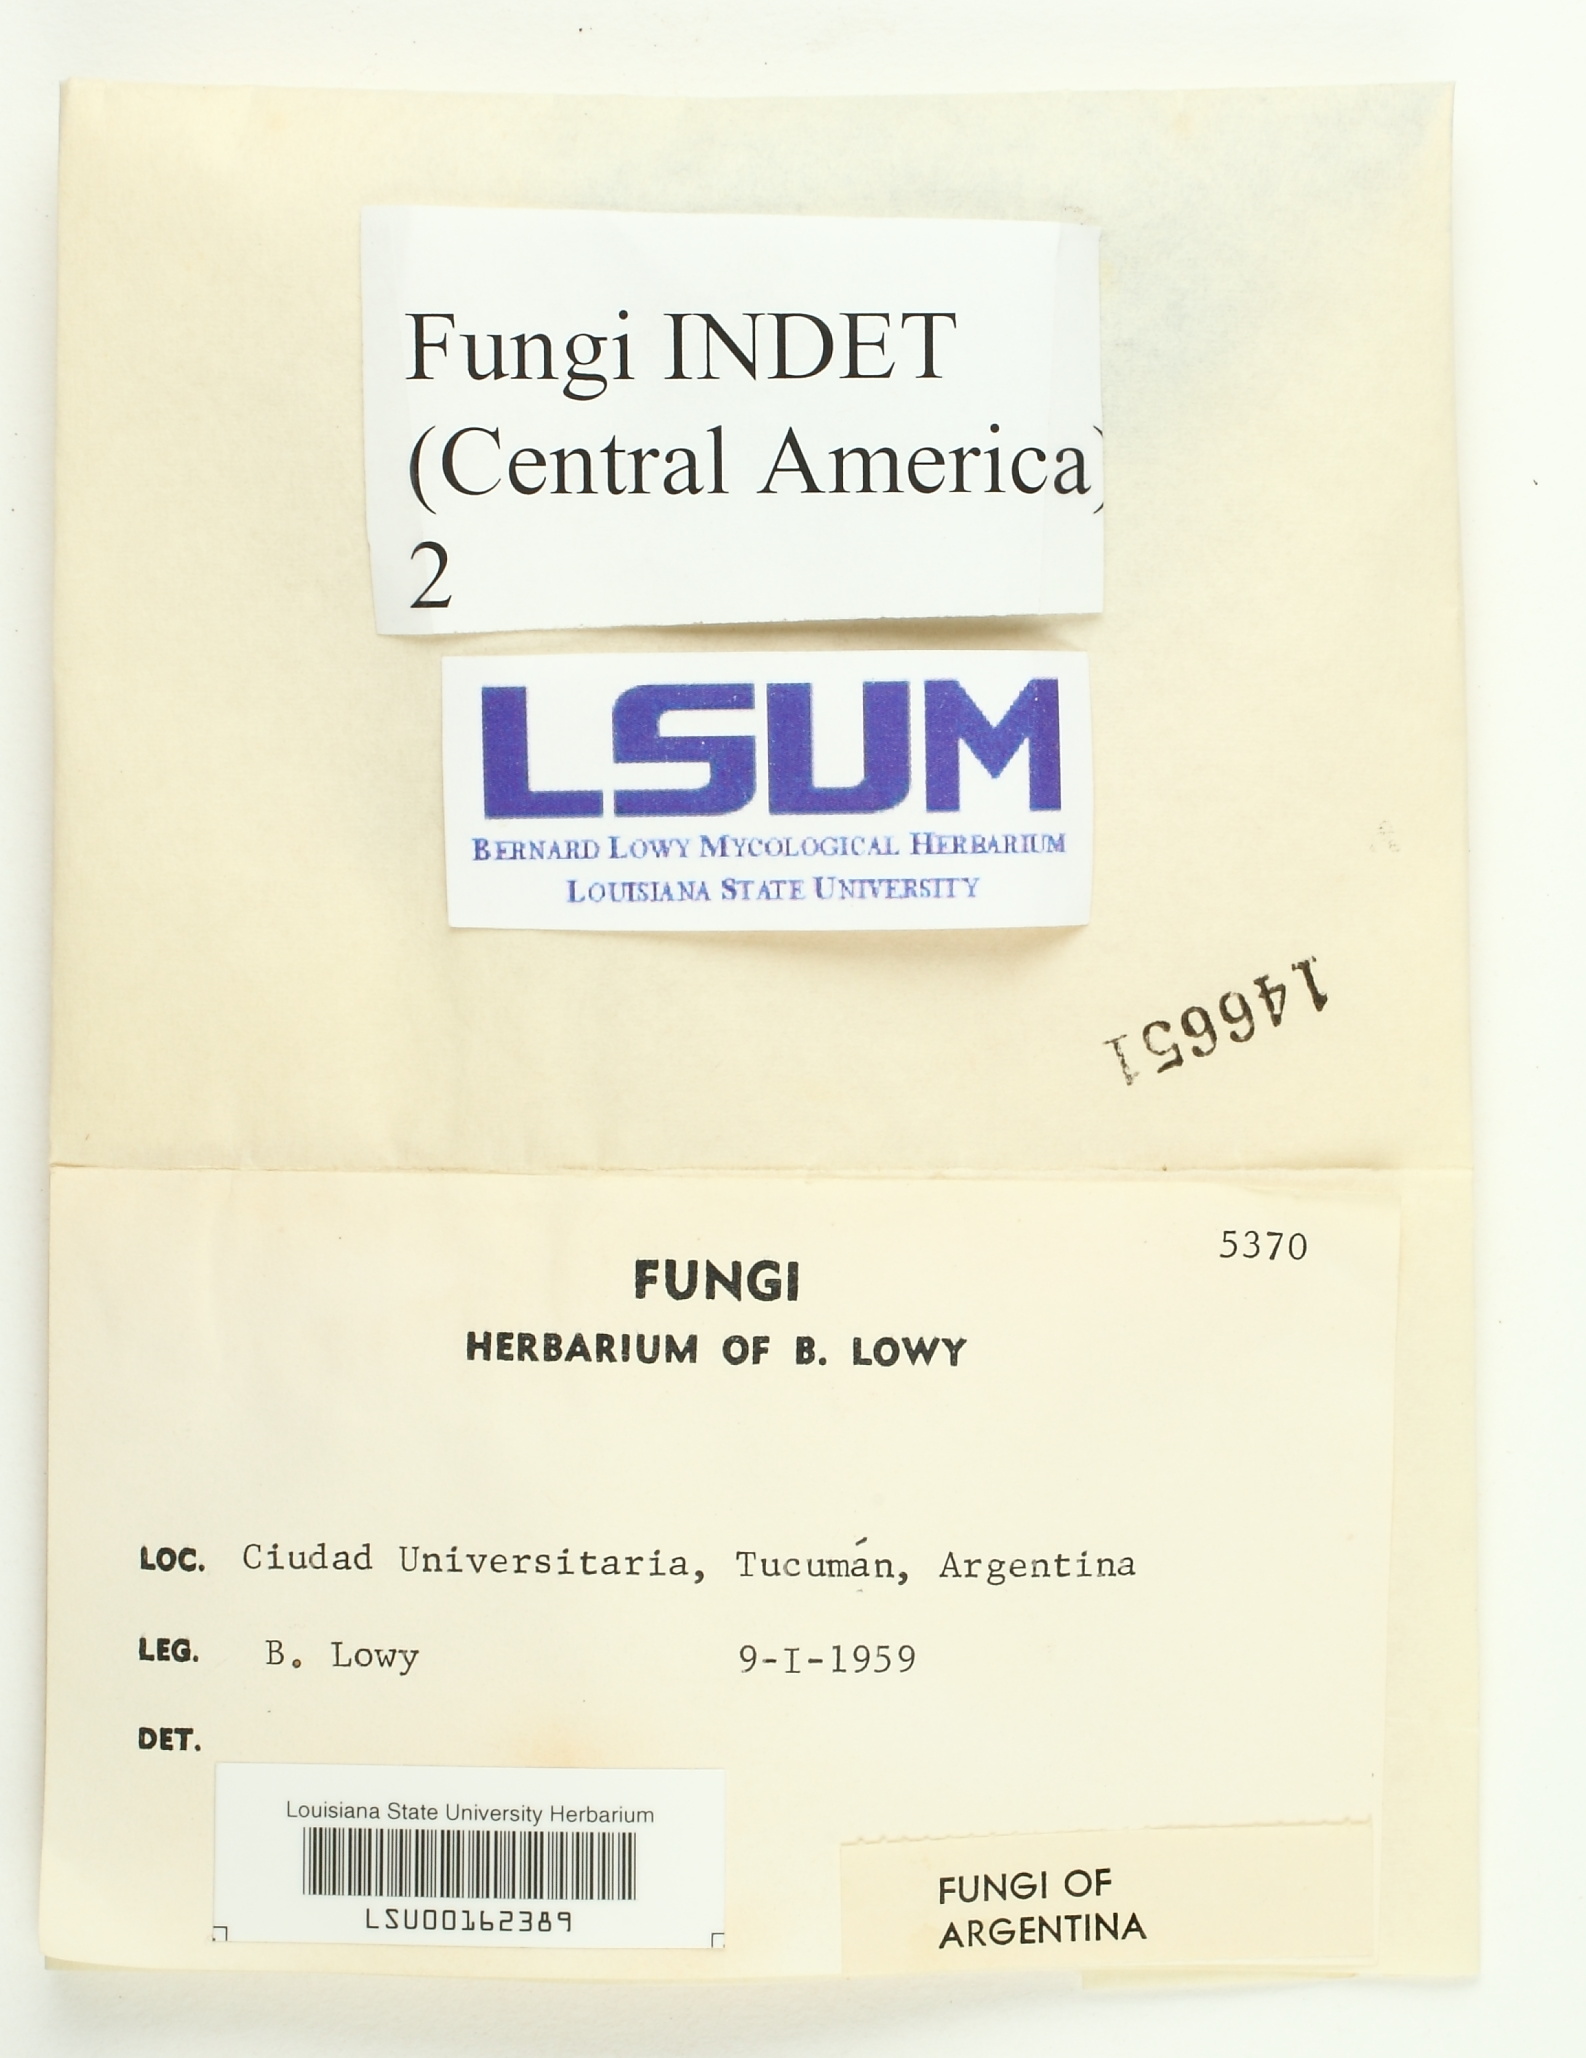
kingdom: Fungi
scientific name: Fungi
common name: Fungi
